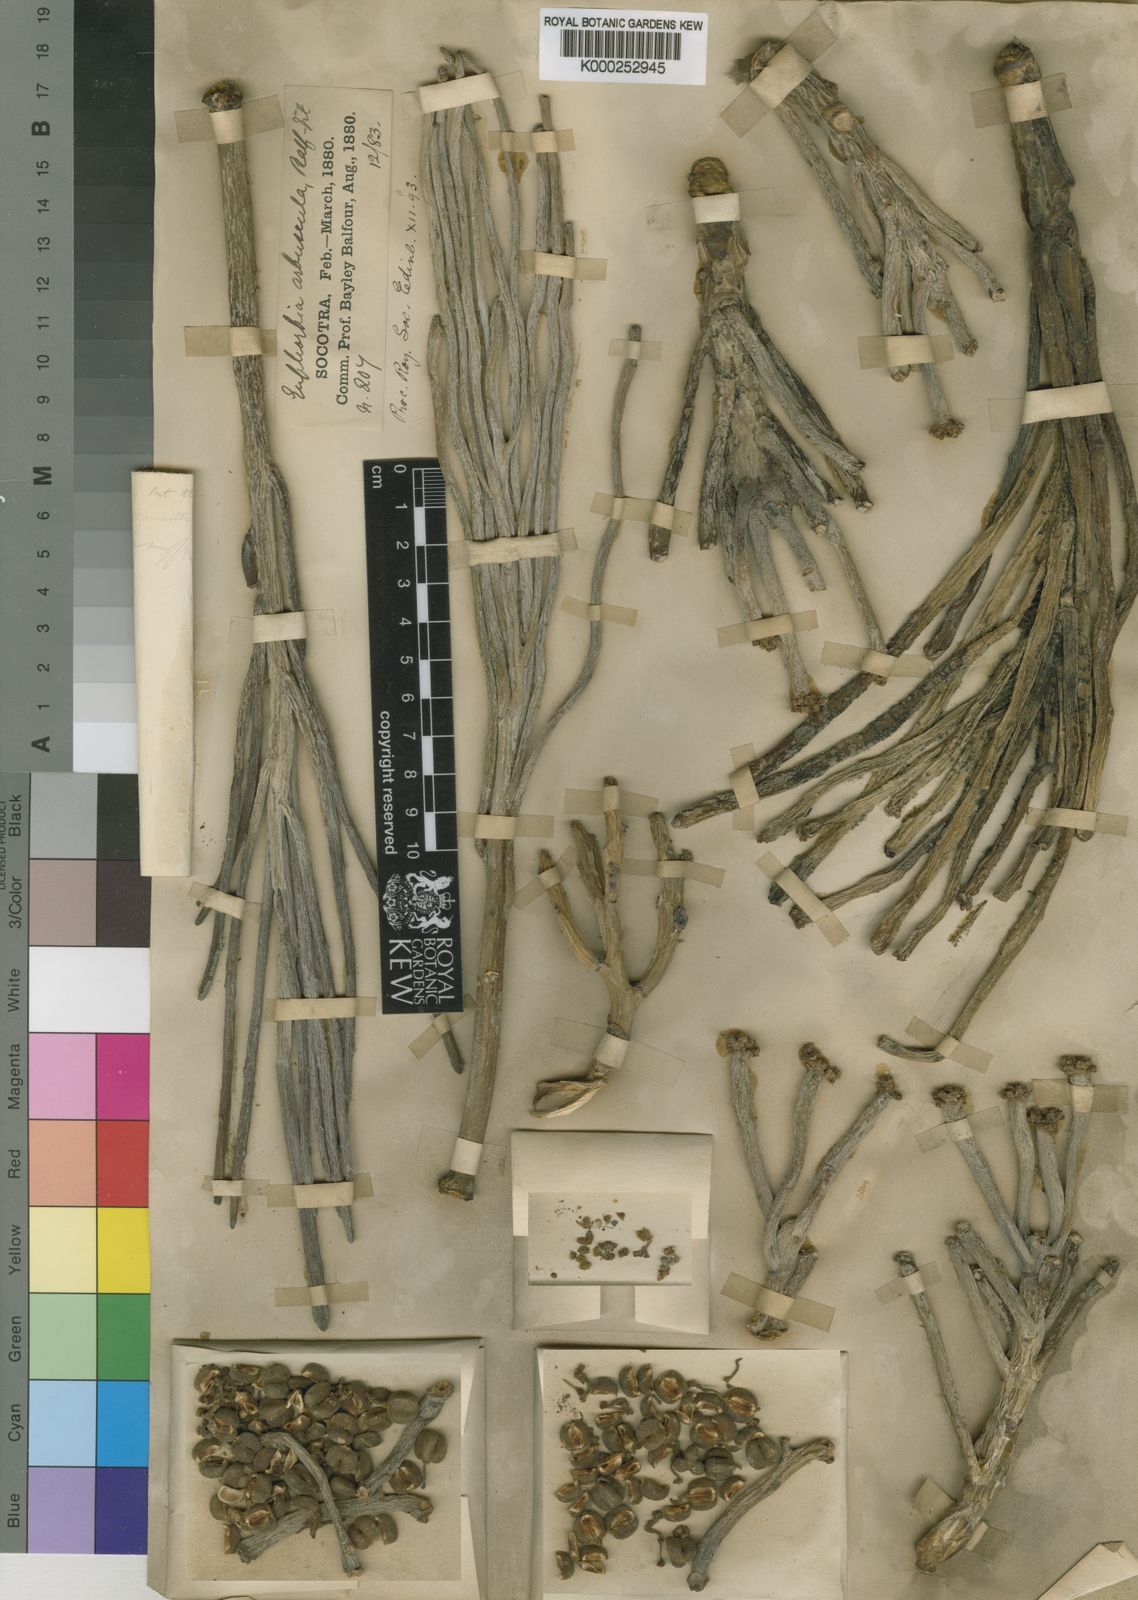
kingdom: Plantae
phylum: Tracheophyta
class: Magnoliopsida
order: Malpighiales
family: Euphorbiaceae
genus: Euphorbia
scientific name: Euphorbia arbuscula
